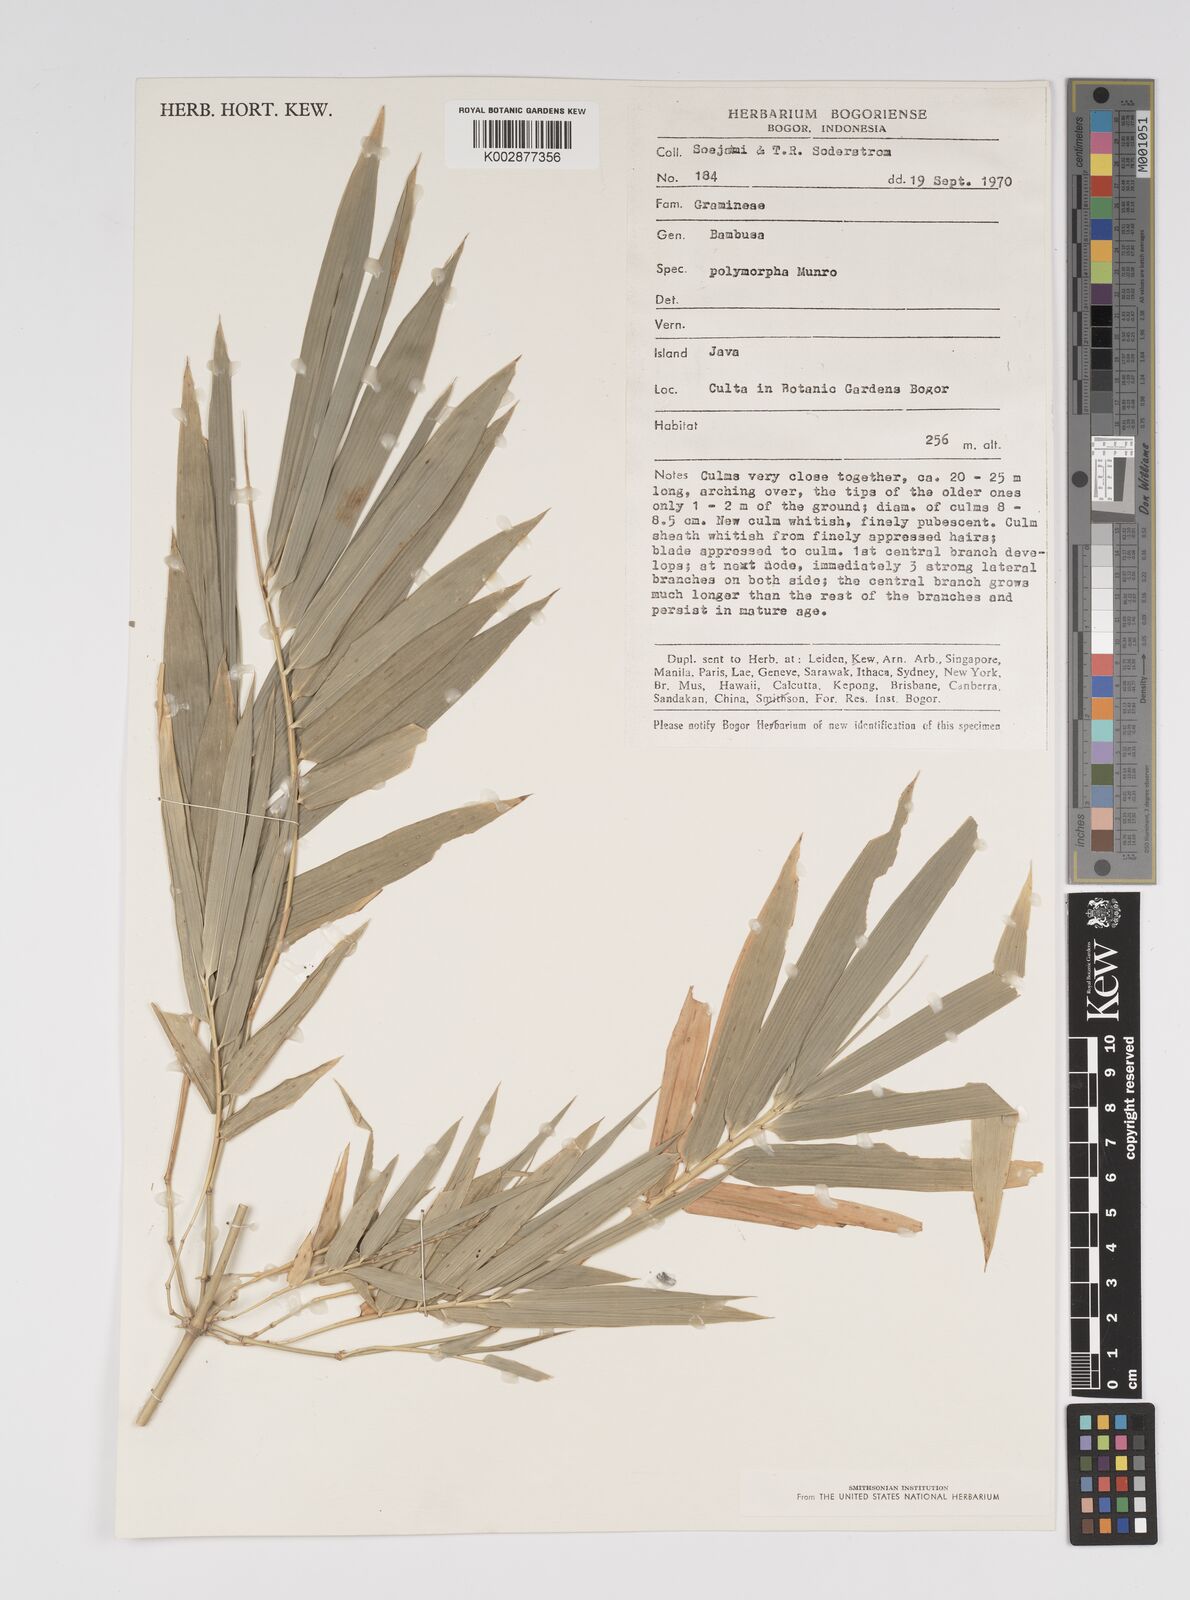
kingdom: Plantae
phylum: Tracheophyta
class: Liliopsida
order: Poales
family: Poaceae
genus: Bambusa
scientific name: Bambusa polymorpha
